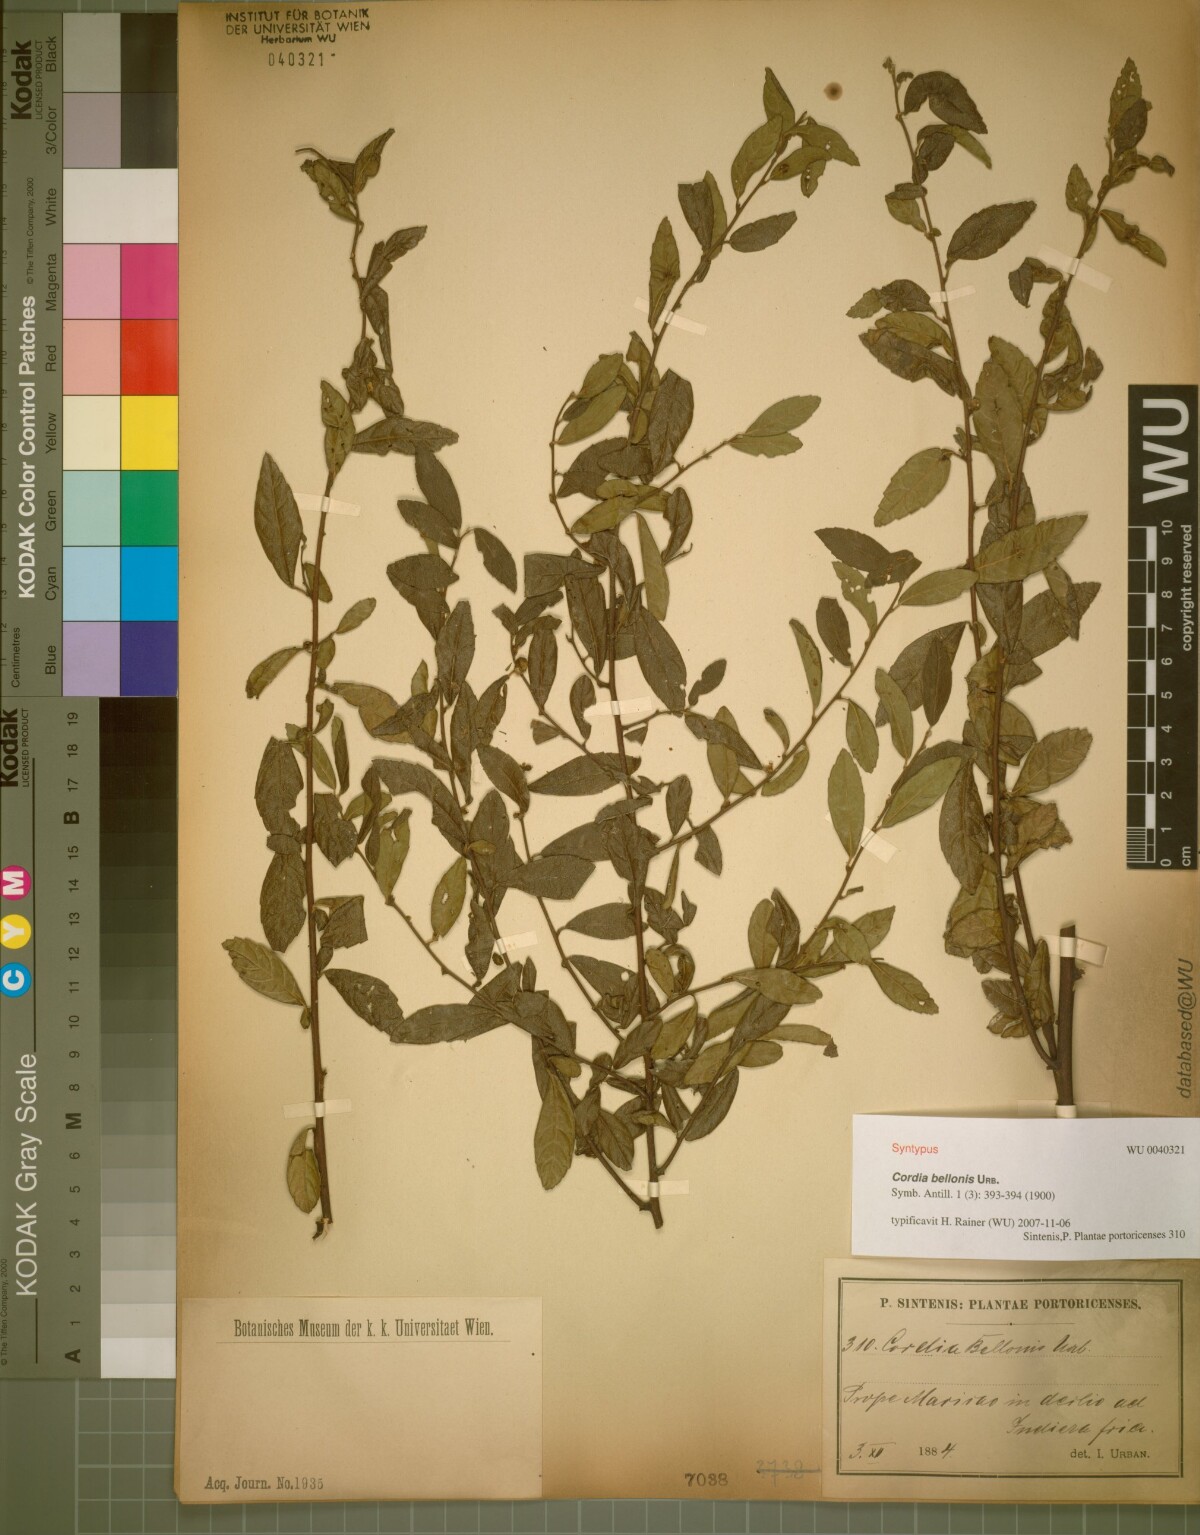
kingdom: Plantae
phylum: Tracheophyta
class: Magnoliopsida
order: Boraginales
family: Cordiaceae
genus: Varronia
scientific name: Varronia bellonis
